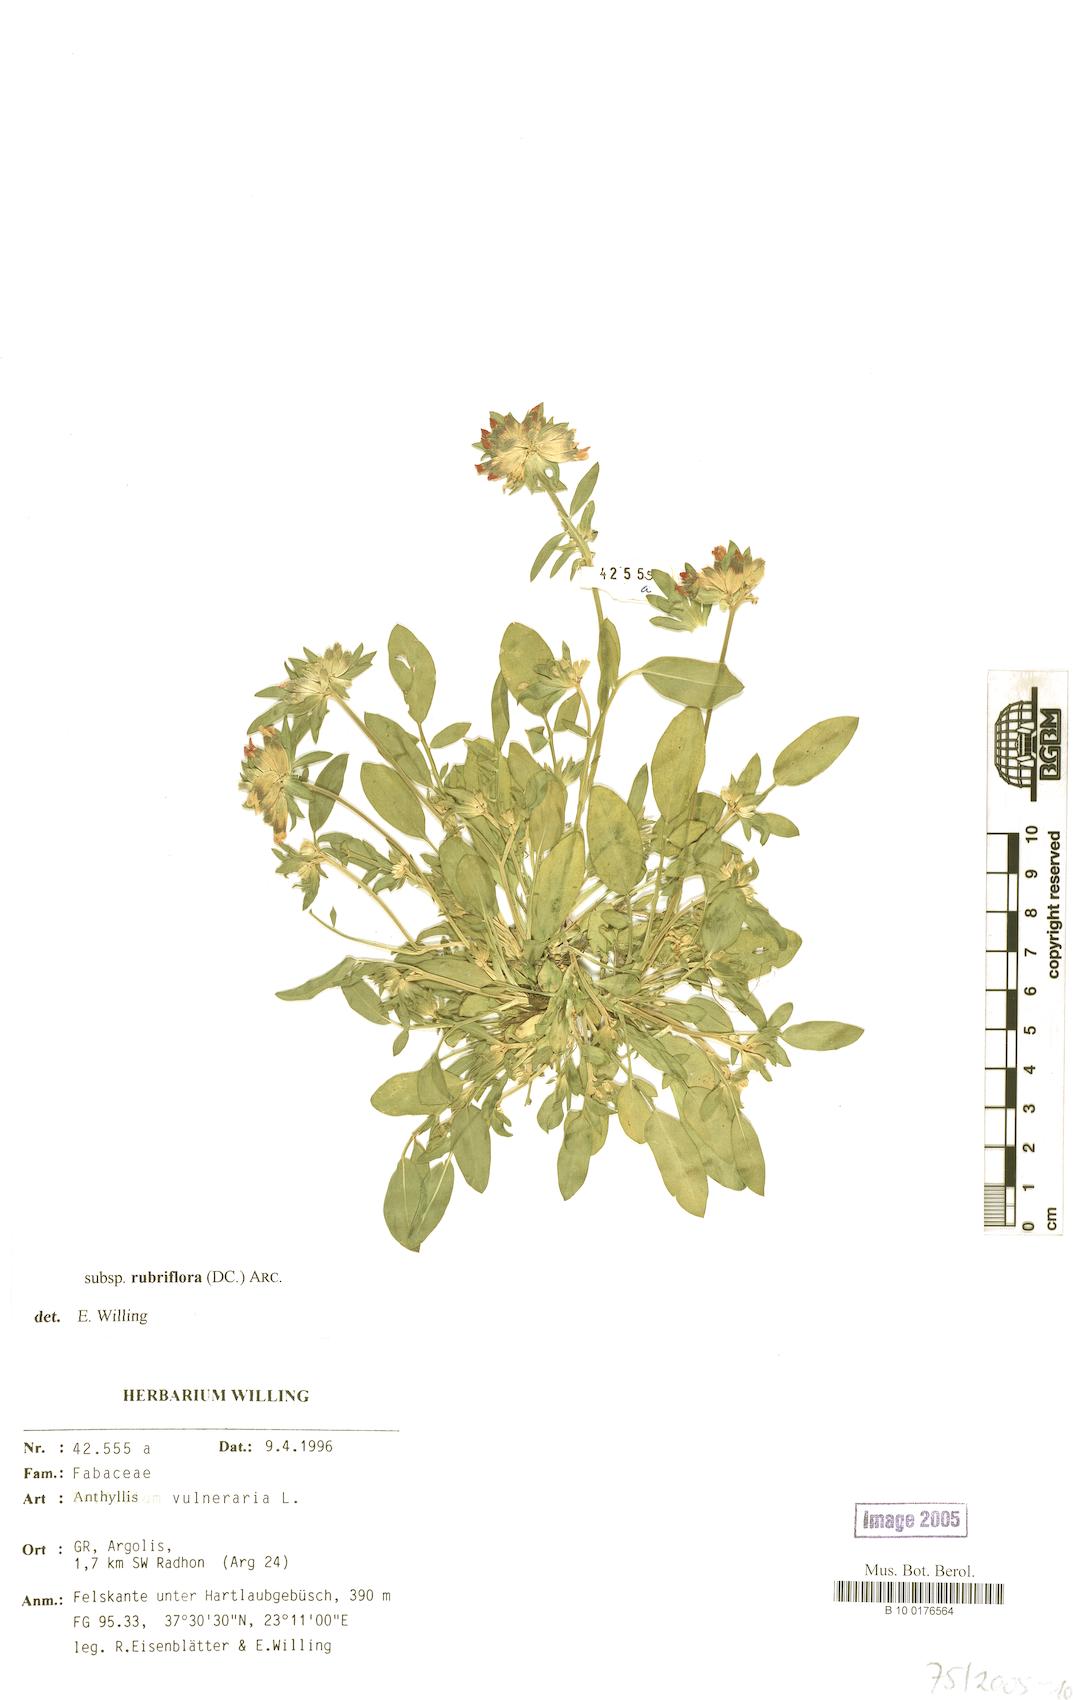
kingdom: Plantae
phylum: Tracheophyta
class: Magnoliopsida
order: Fabales
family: Fabaceae
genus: Anthyllis
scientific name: Anthyllis vulneraria
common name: Kidney vetch
